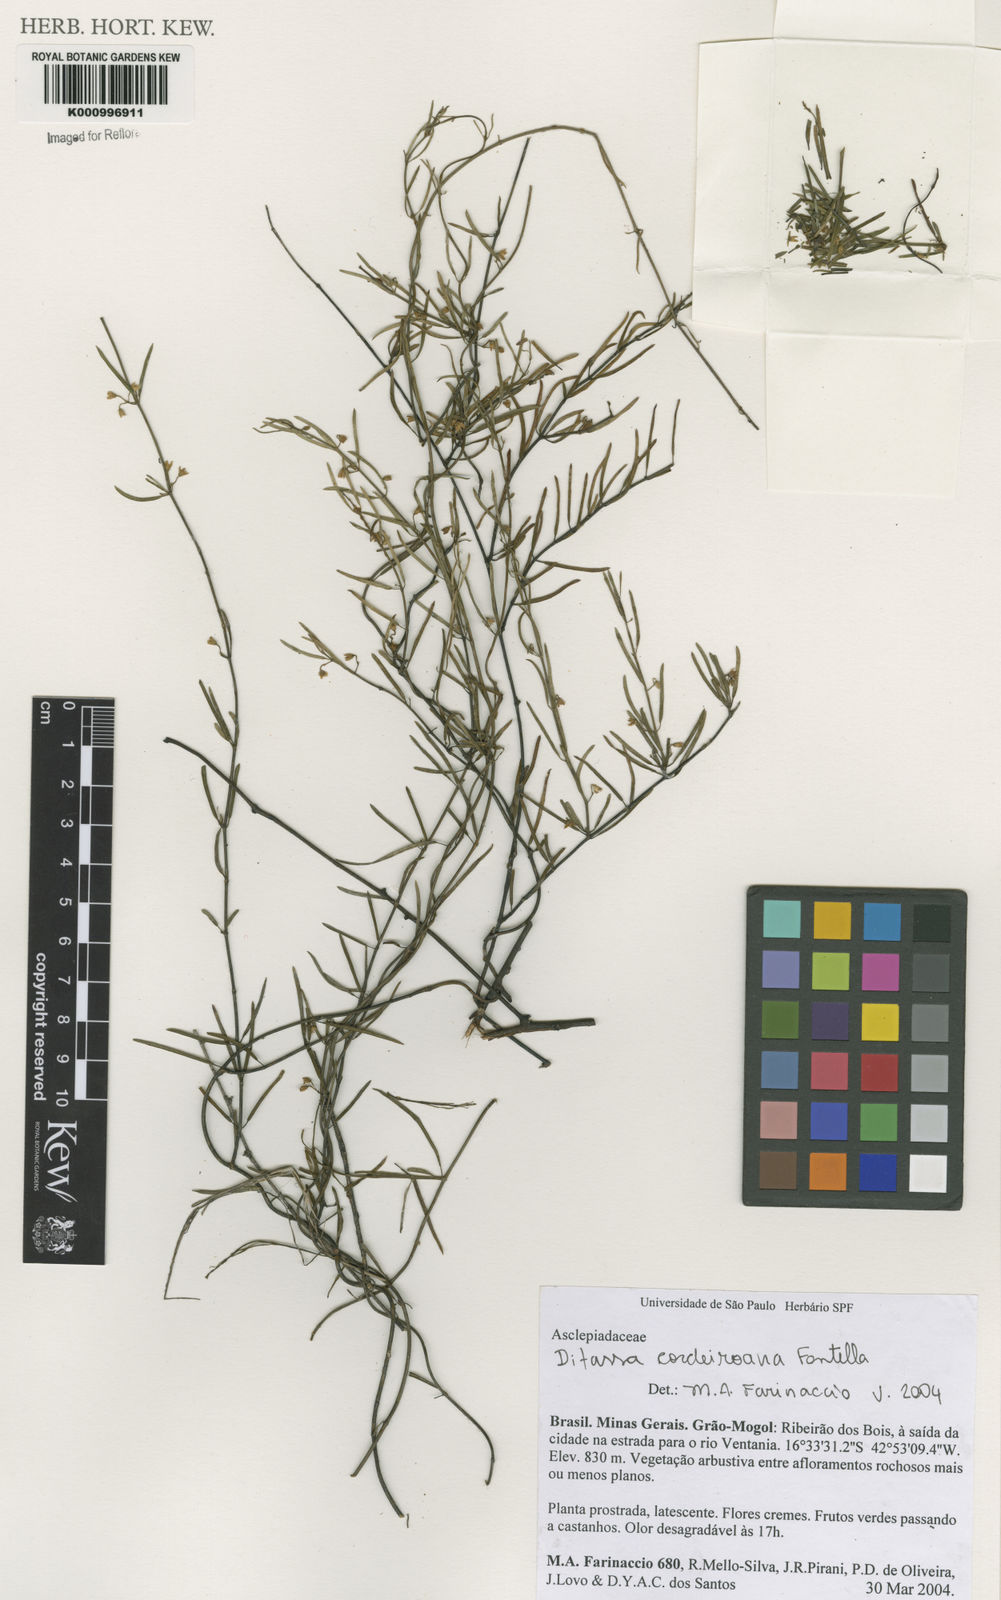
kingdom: Plantae
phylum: Tracheophyta
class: Magnoliopsida
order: Gentianales
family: Apocynaceae
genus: Ditassa
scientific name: Ditassa cordeiroana
